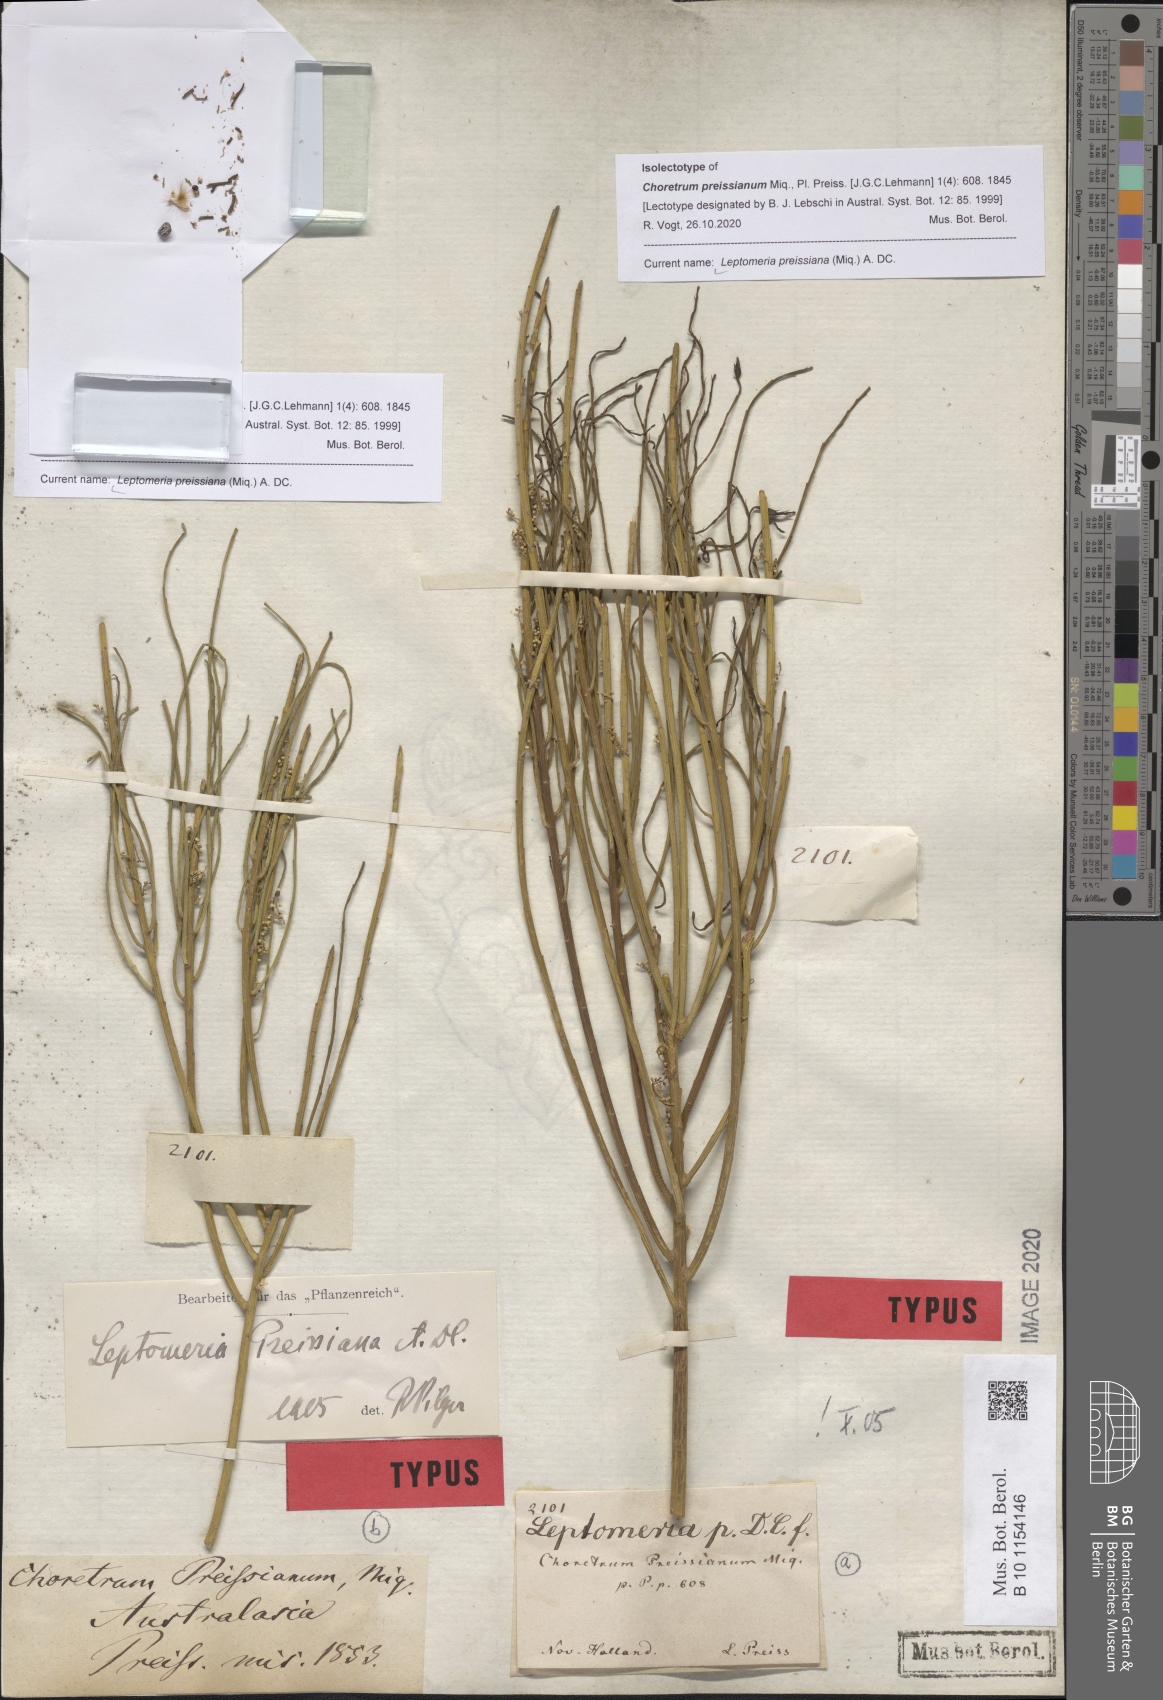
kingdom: Plantae
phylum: Tracheophyta
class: Magnoliopsida
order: Santalales
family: Amphorogynaceae
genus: Leptomeria
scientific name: Leptomeria preissiana
